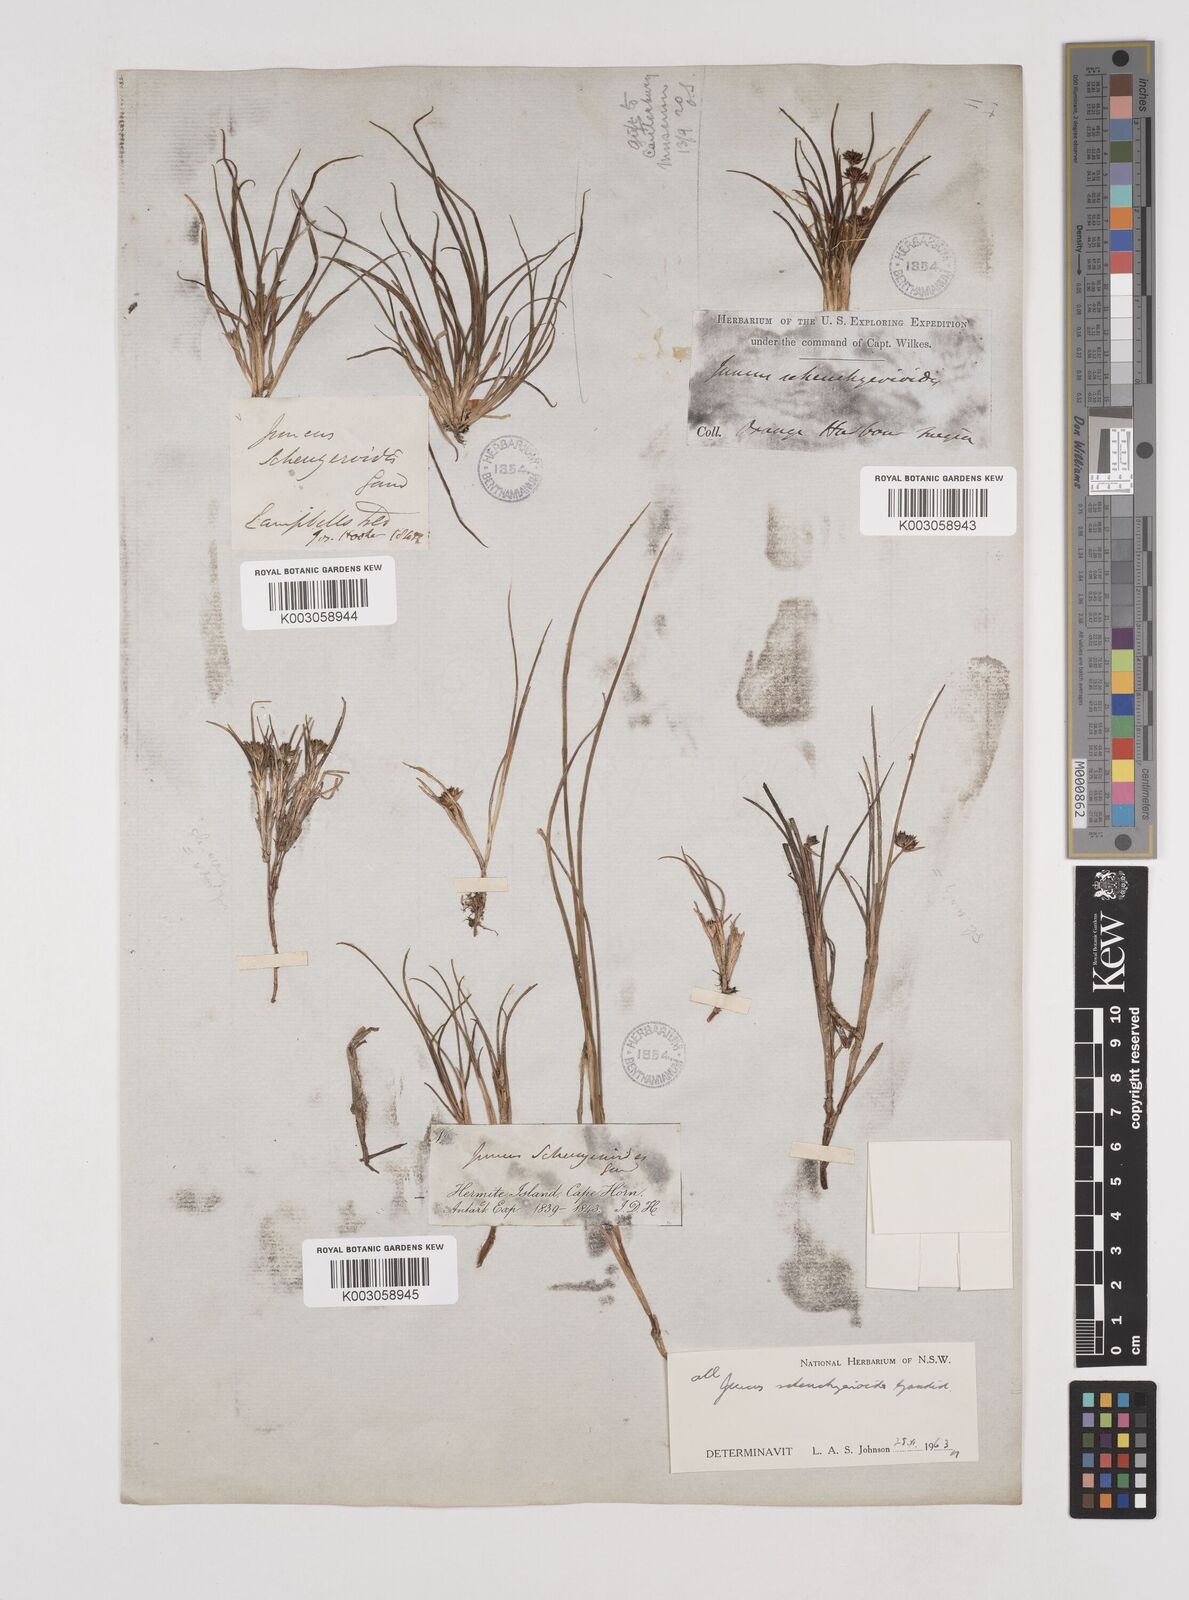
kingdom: Plantae
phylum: Tracheophyta
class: Liliopsida
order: Poales
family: Juncaceae
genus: Juncus
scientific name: Juncus scheuchzerioides
